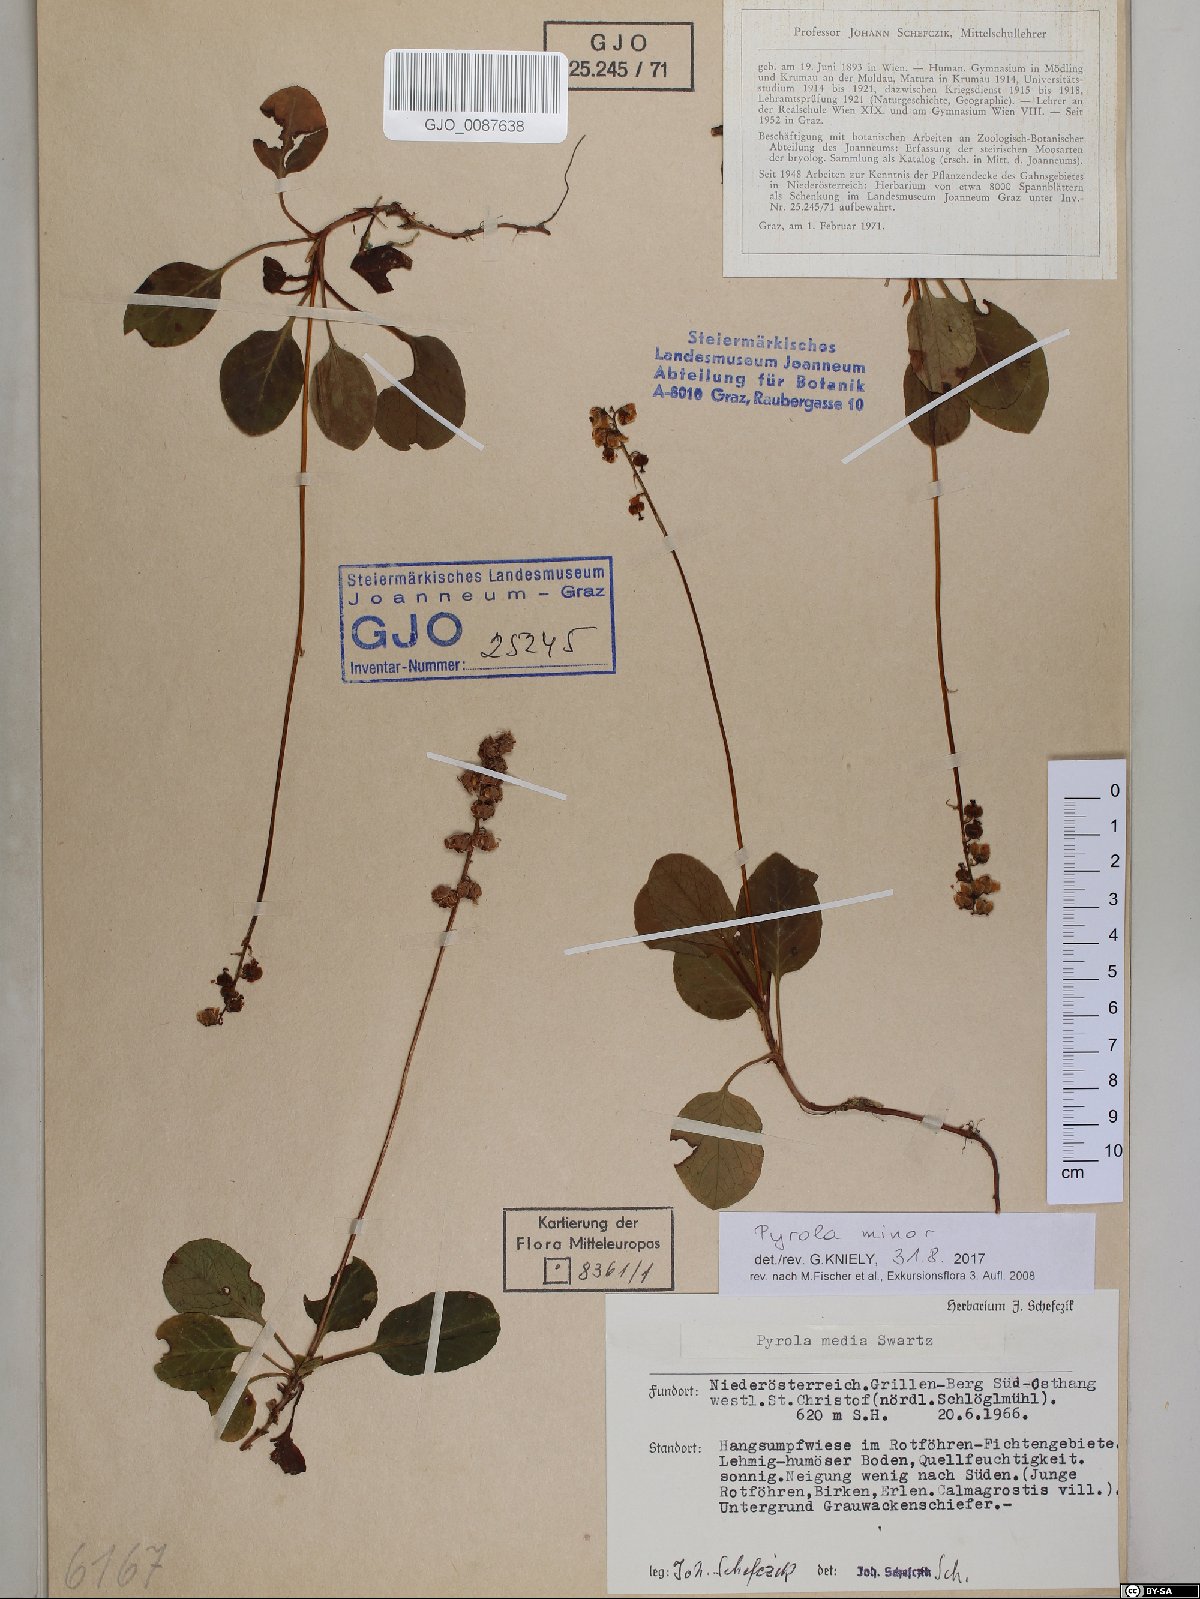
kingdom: Plantae
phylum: Tracheophyta
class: Magnoliopsida
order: Ericales
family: Ericaceae
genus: Pyrola
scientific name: Pyrola minor
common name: Common wintergreen
